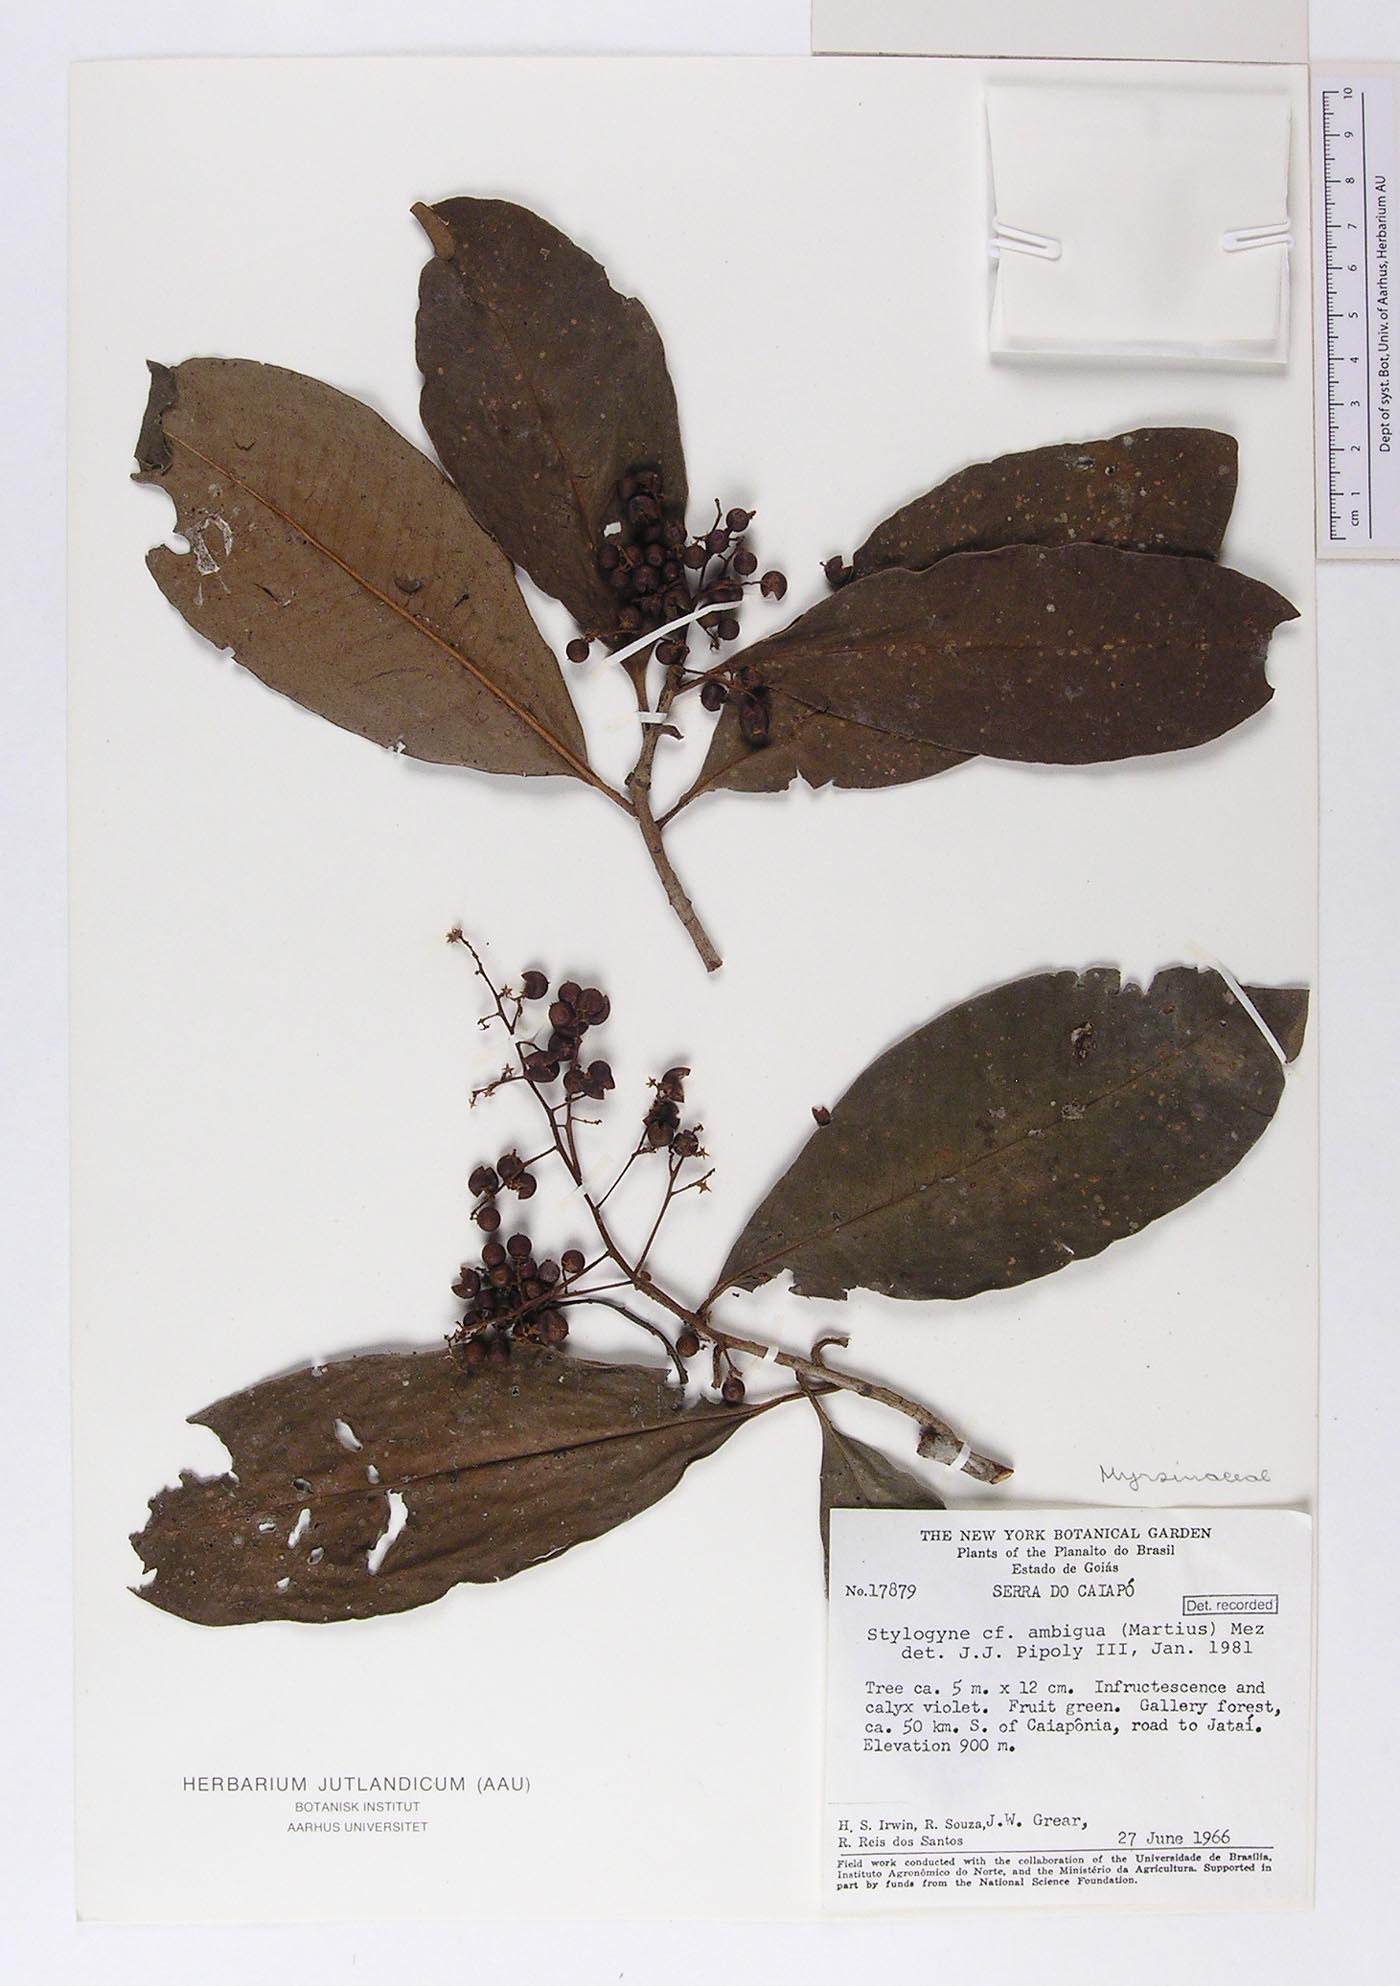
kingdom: Plantae
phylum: Tracheophyta
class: Magnoliopsida
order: Ericales
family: Primulaceae
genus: Geissanthus
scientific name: Geissanthus ambigua
